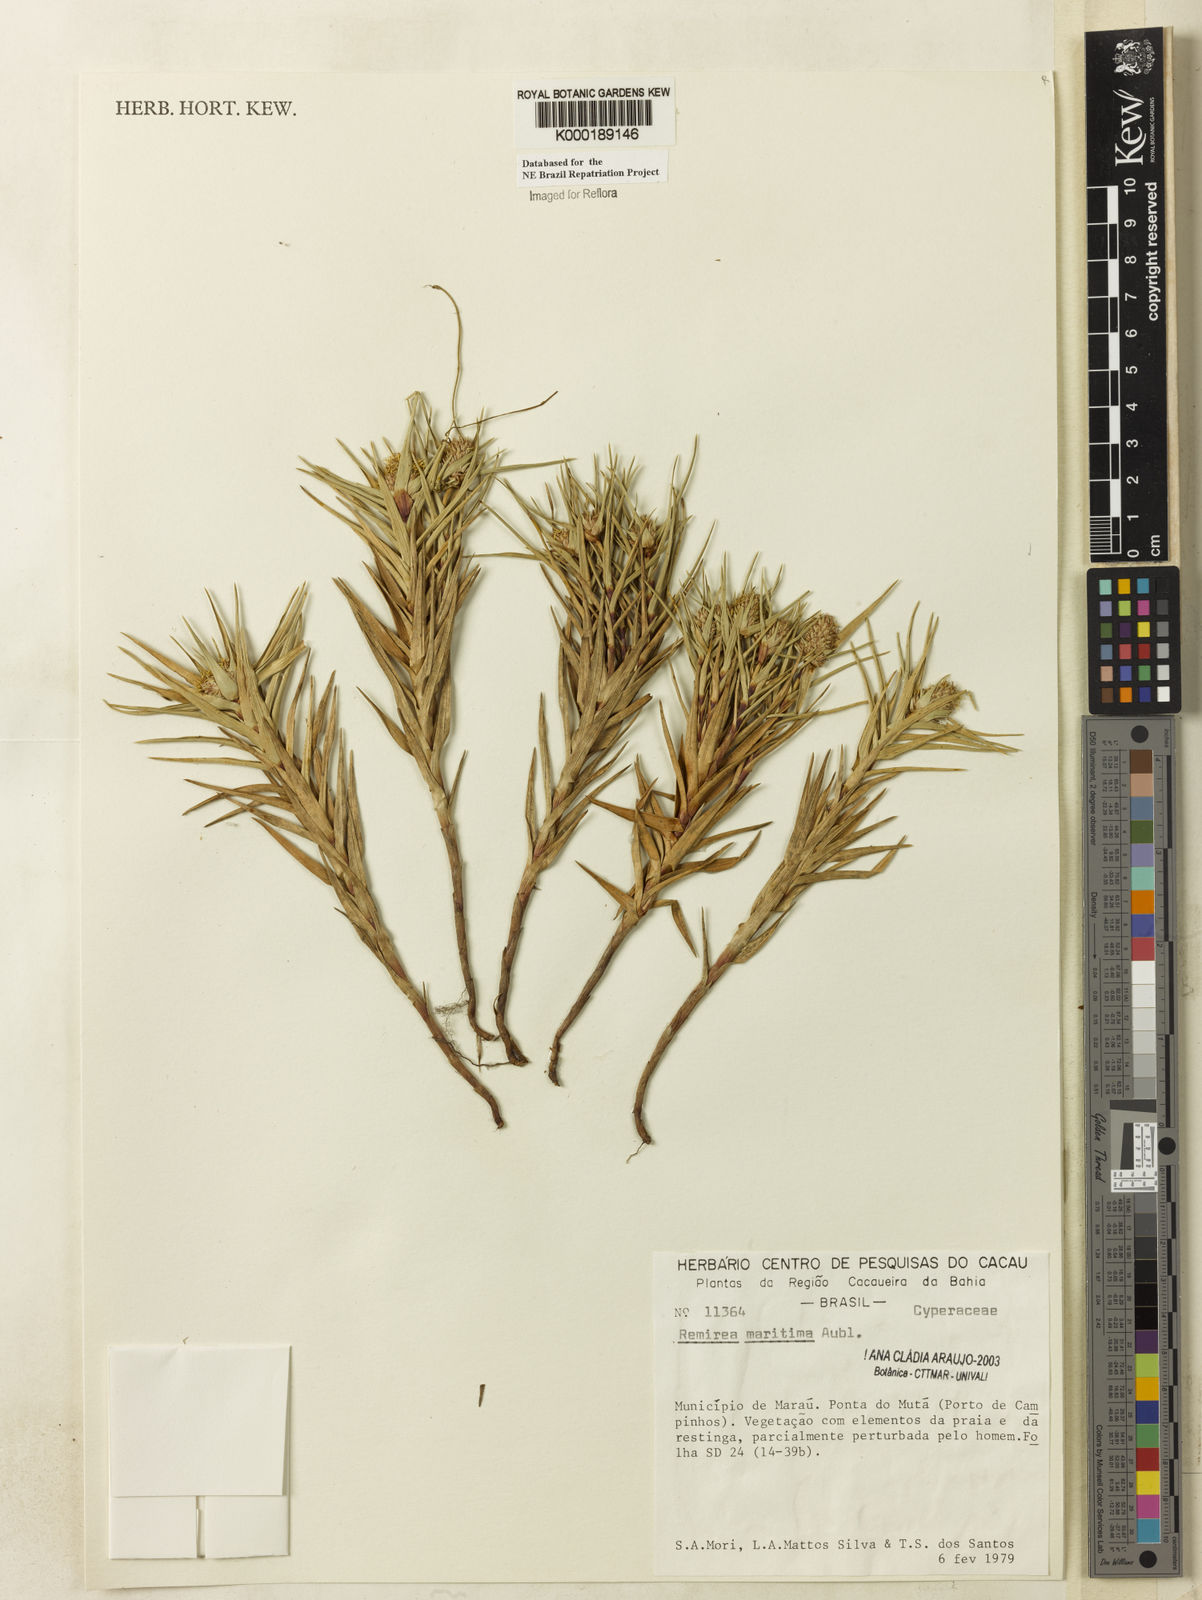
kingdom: Plantae
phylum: Tracheophyta
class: Liliopsida
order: Poales
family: Cyperaceae
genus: Cyperus
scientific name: Cyperus pedunculatus
